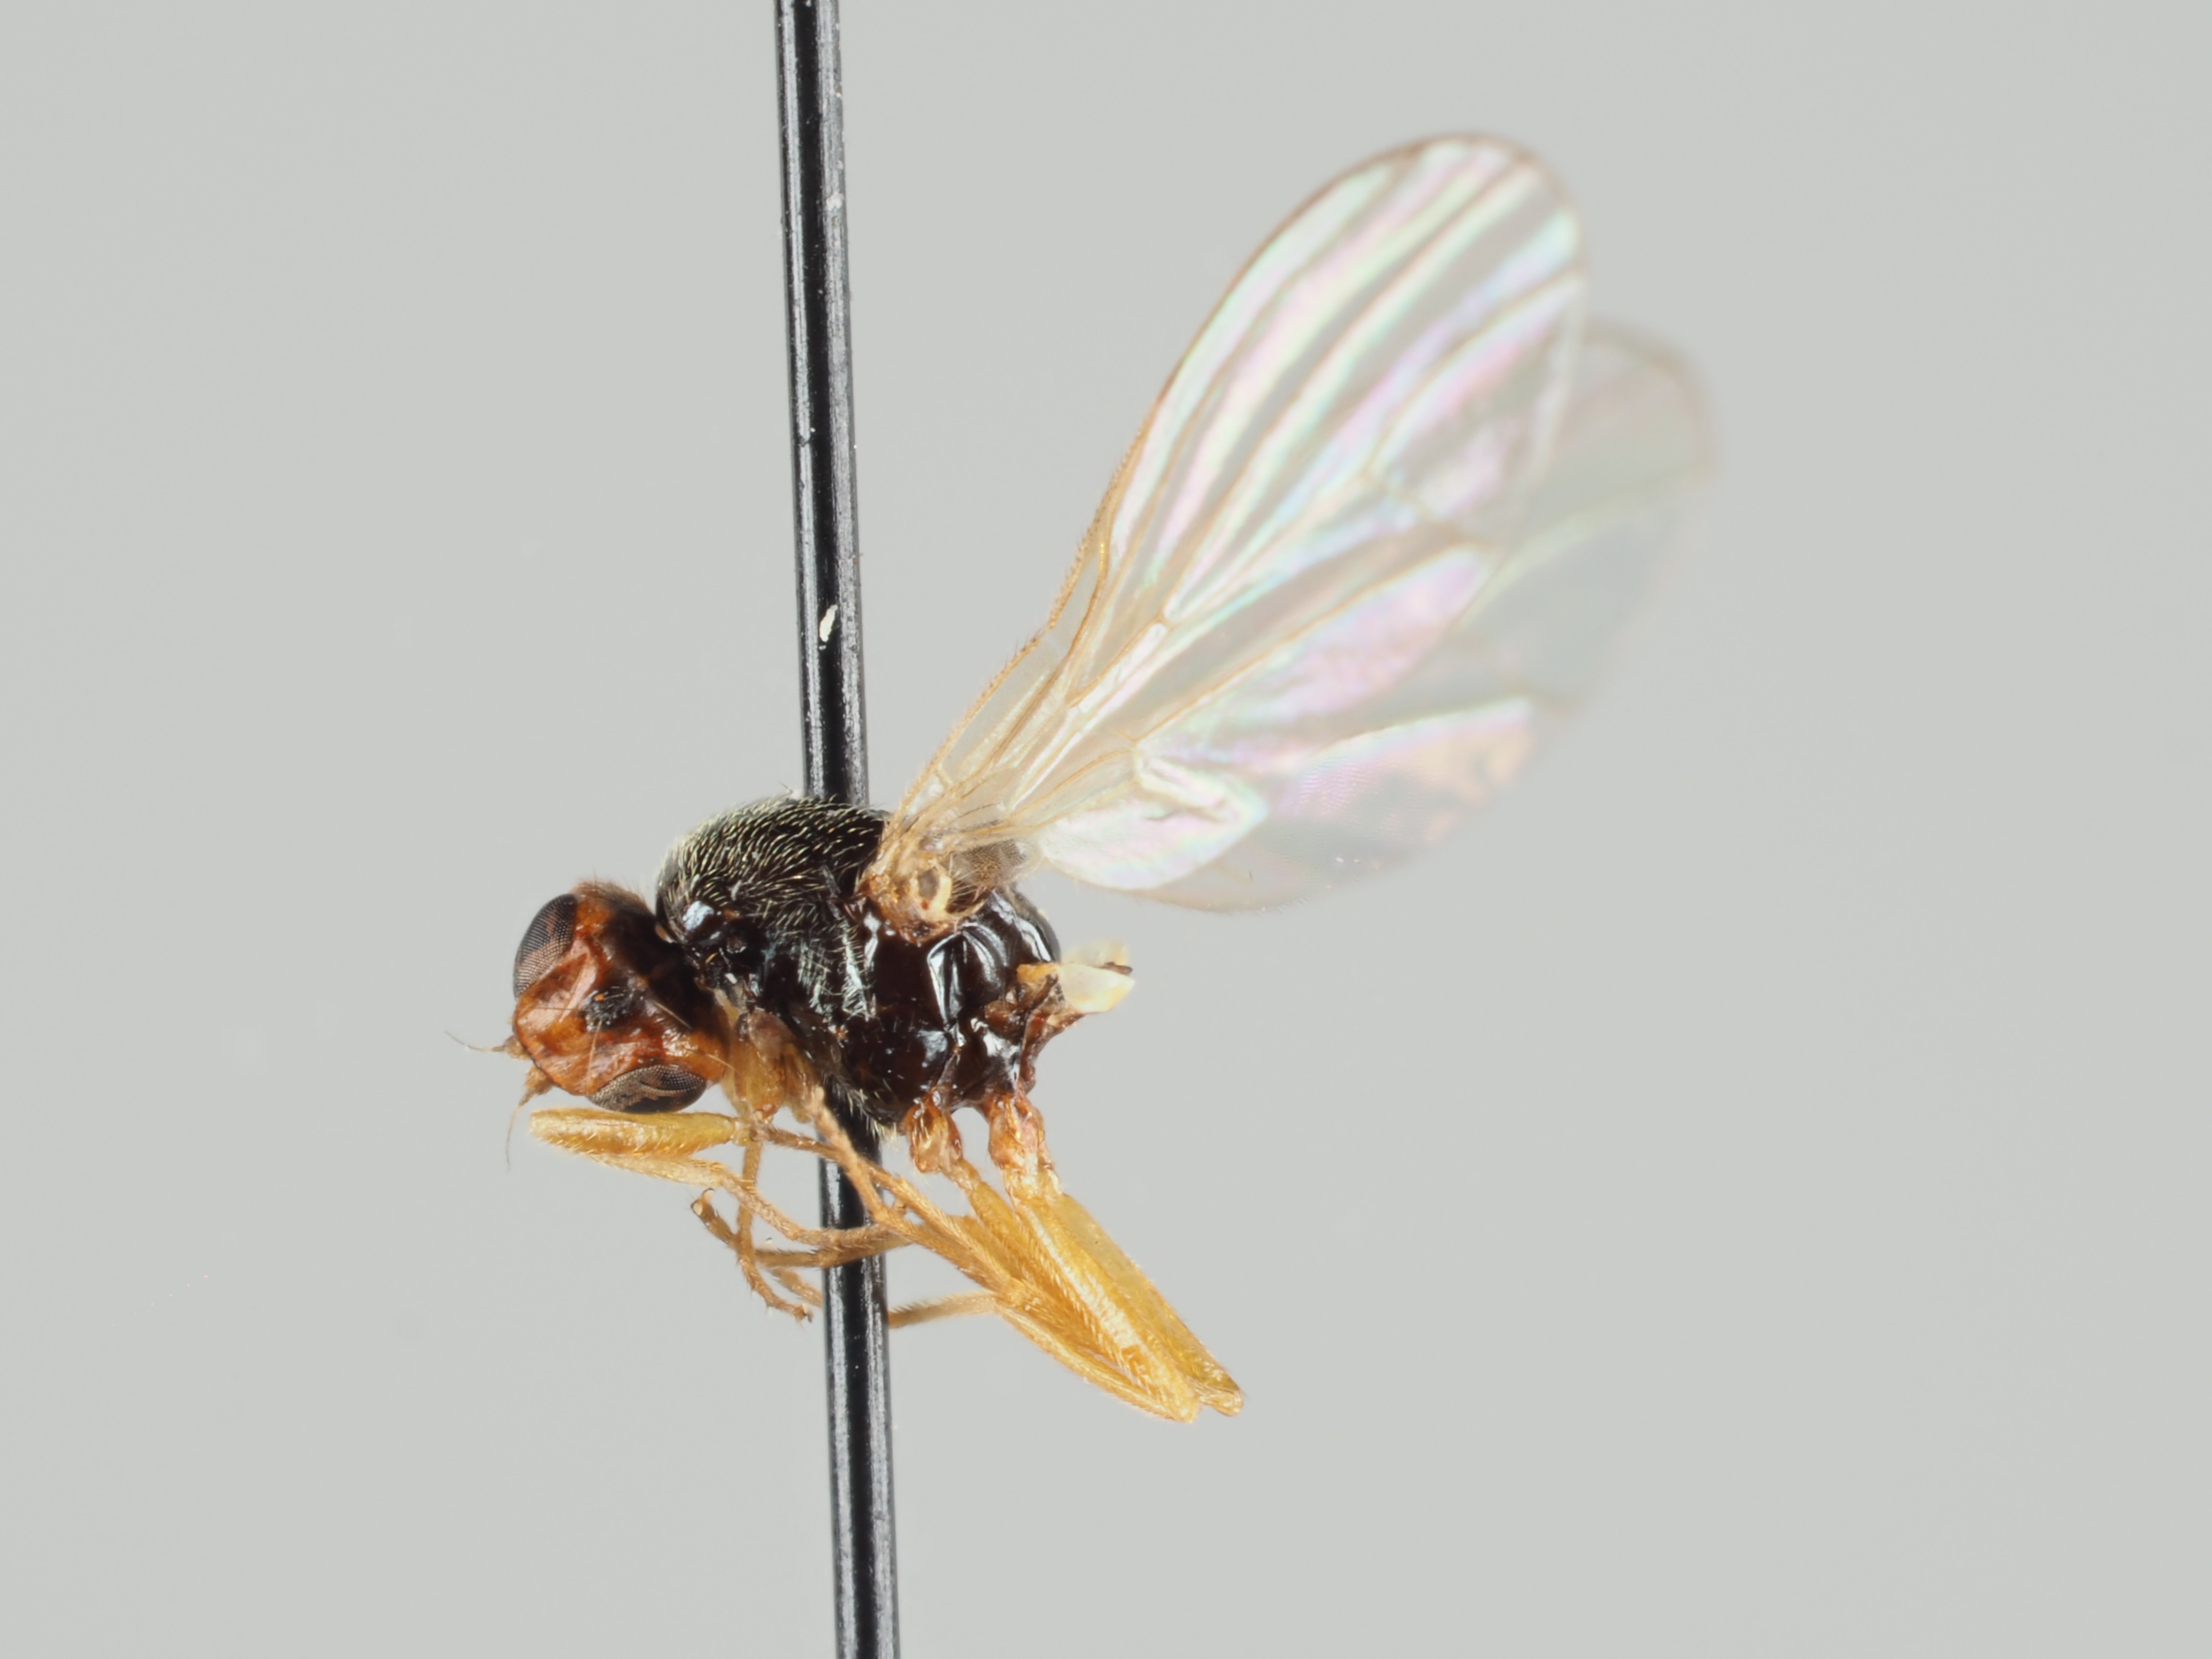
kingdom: Animalia
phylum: Arthropoda
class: Insecta
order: Diptera
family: Psilidae
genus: Psila
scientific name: Psila nigricornis
